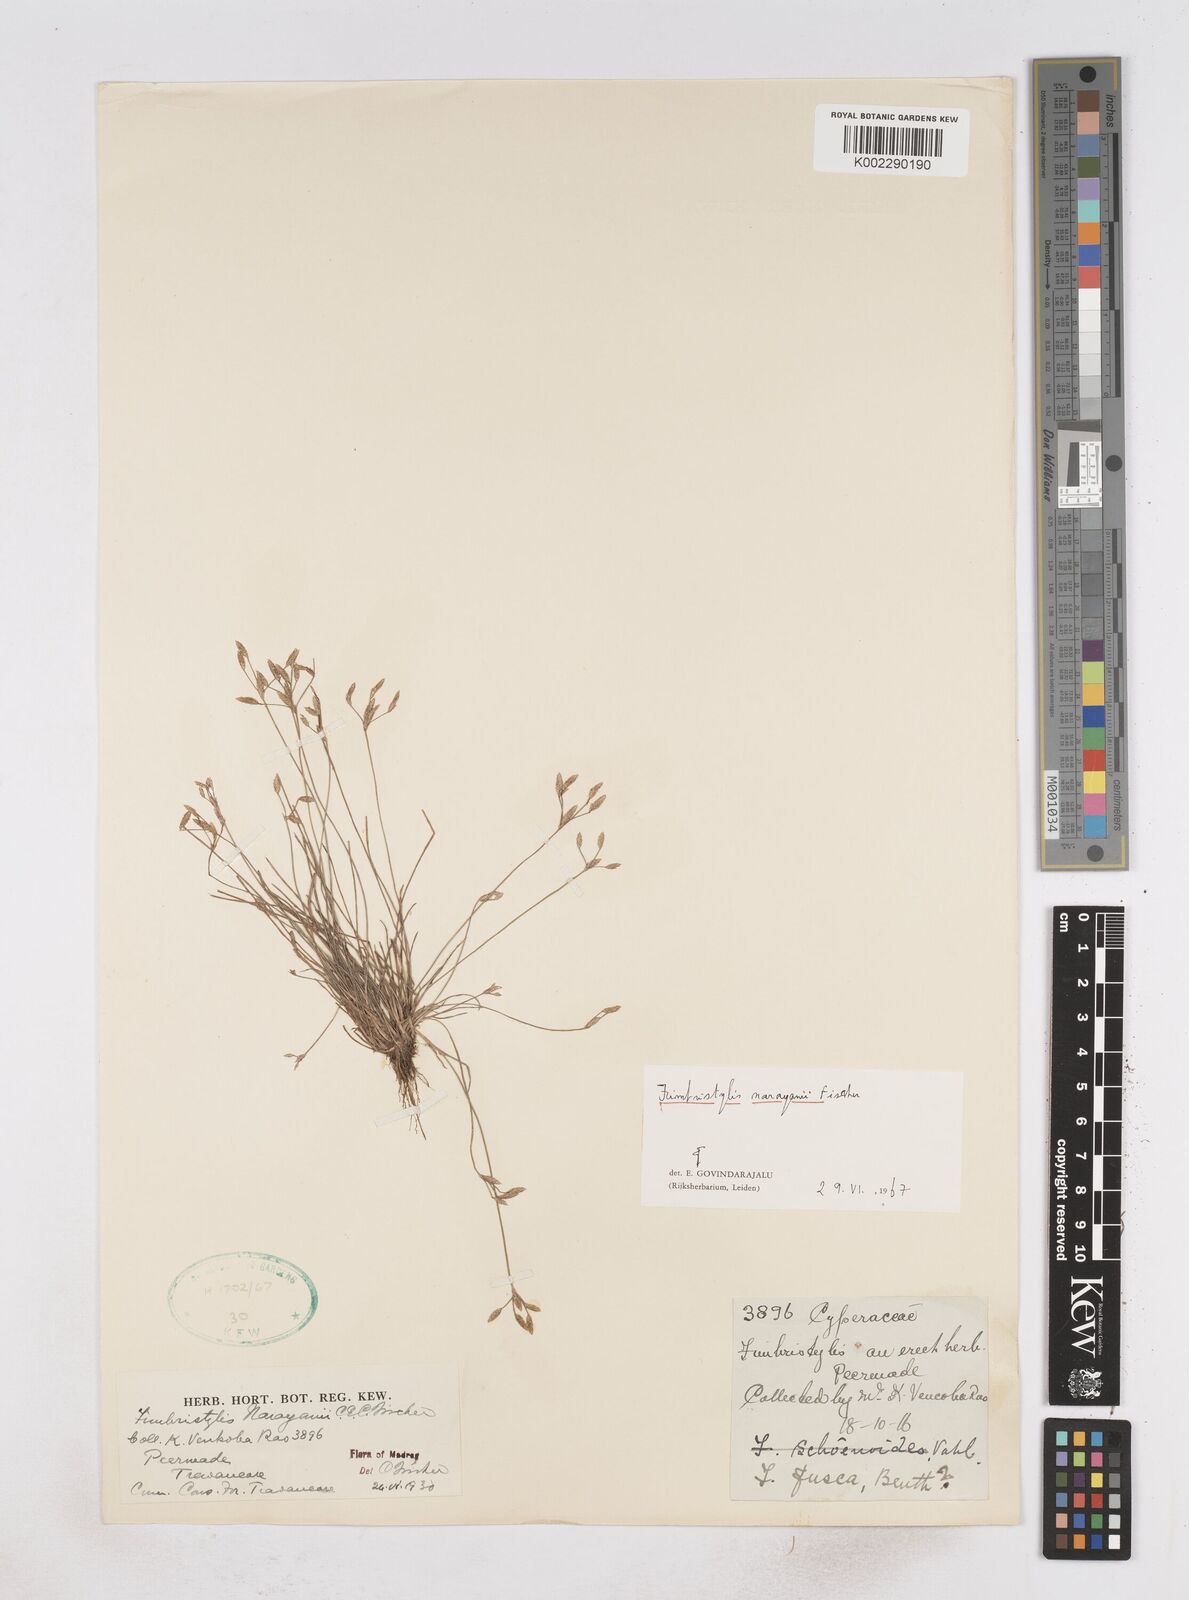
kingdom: Plantae
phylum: Tracheophyta
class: Liliopsida
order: Poales
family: Cyperaceae
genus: Fimbristylis
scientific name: Fimbristylis narayanii
